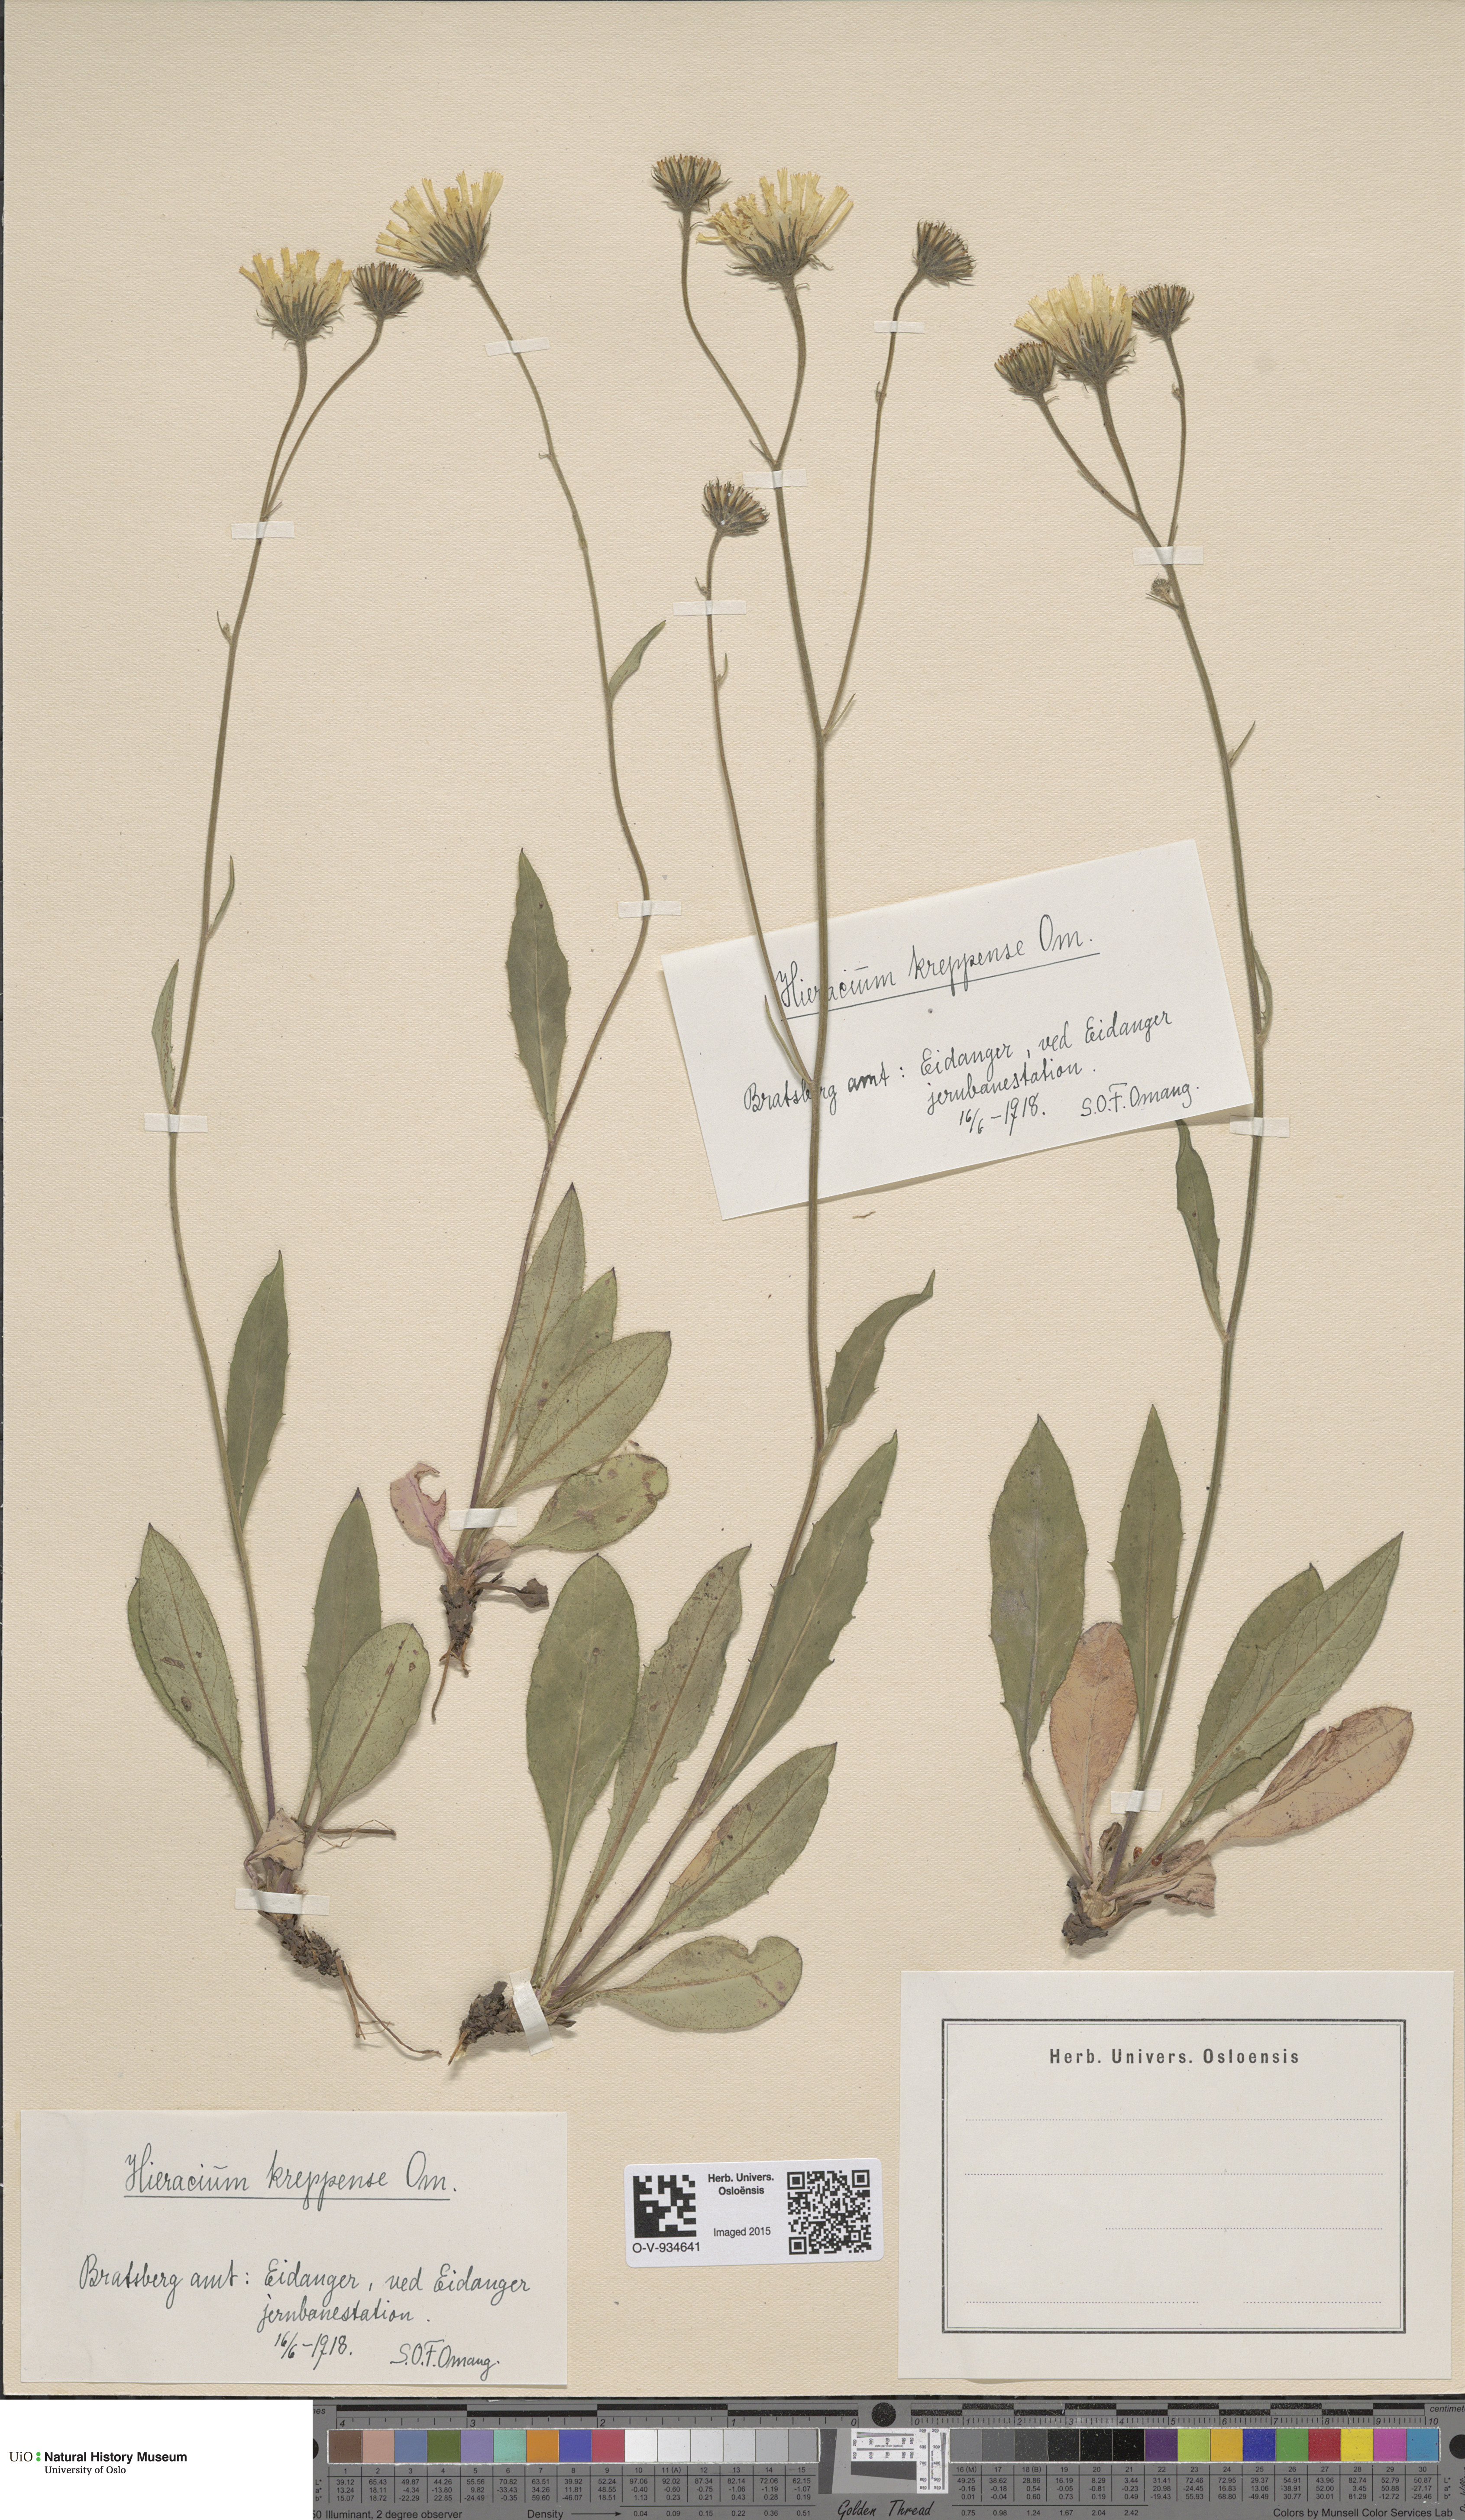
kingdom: Plantae
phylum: Tracheophyta
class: Magnoliopsida
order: Asterales
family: Asteraceae
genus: Hieracium
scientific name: Hieracium
